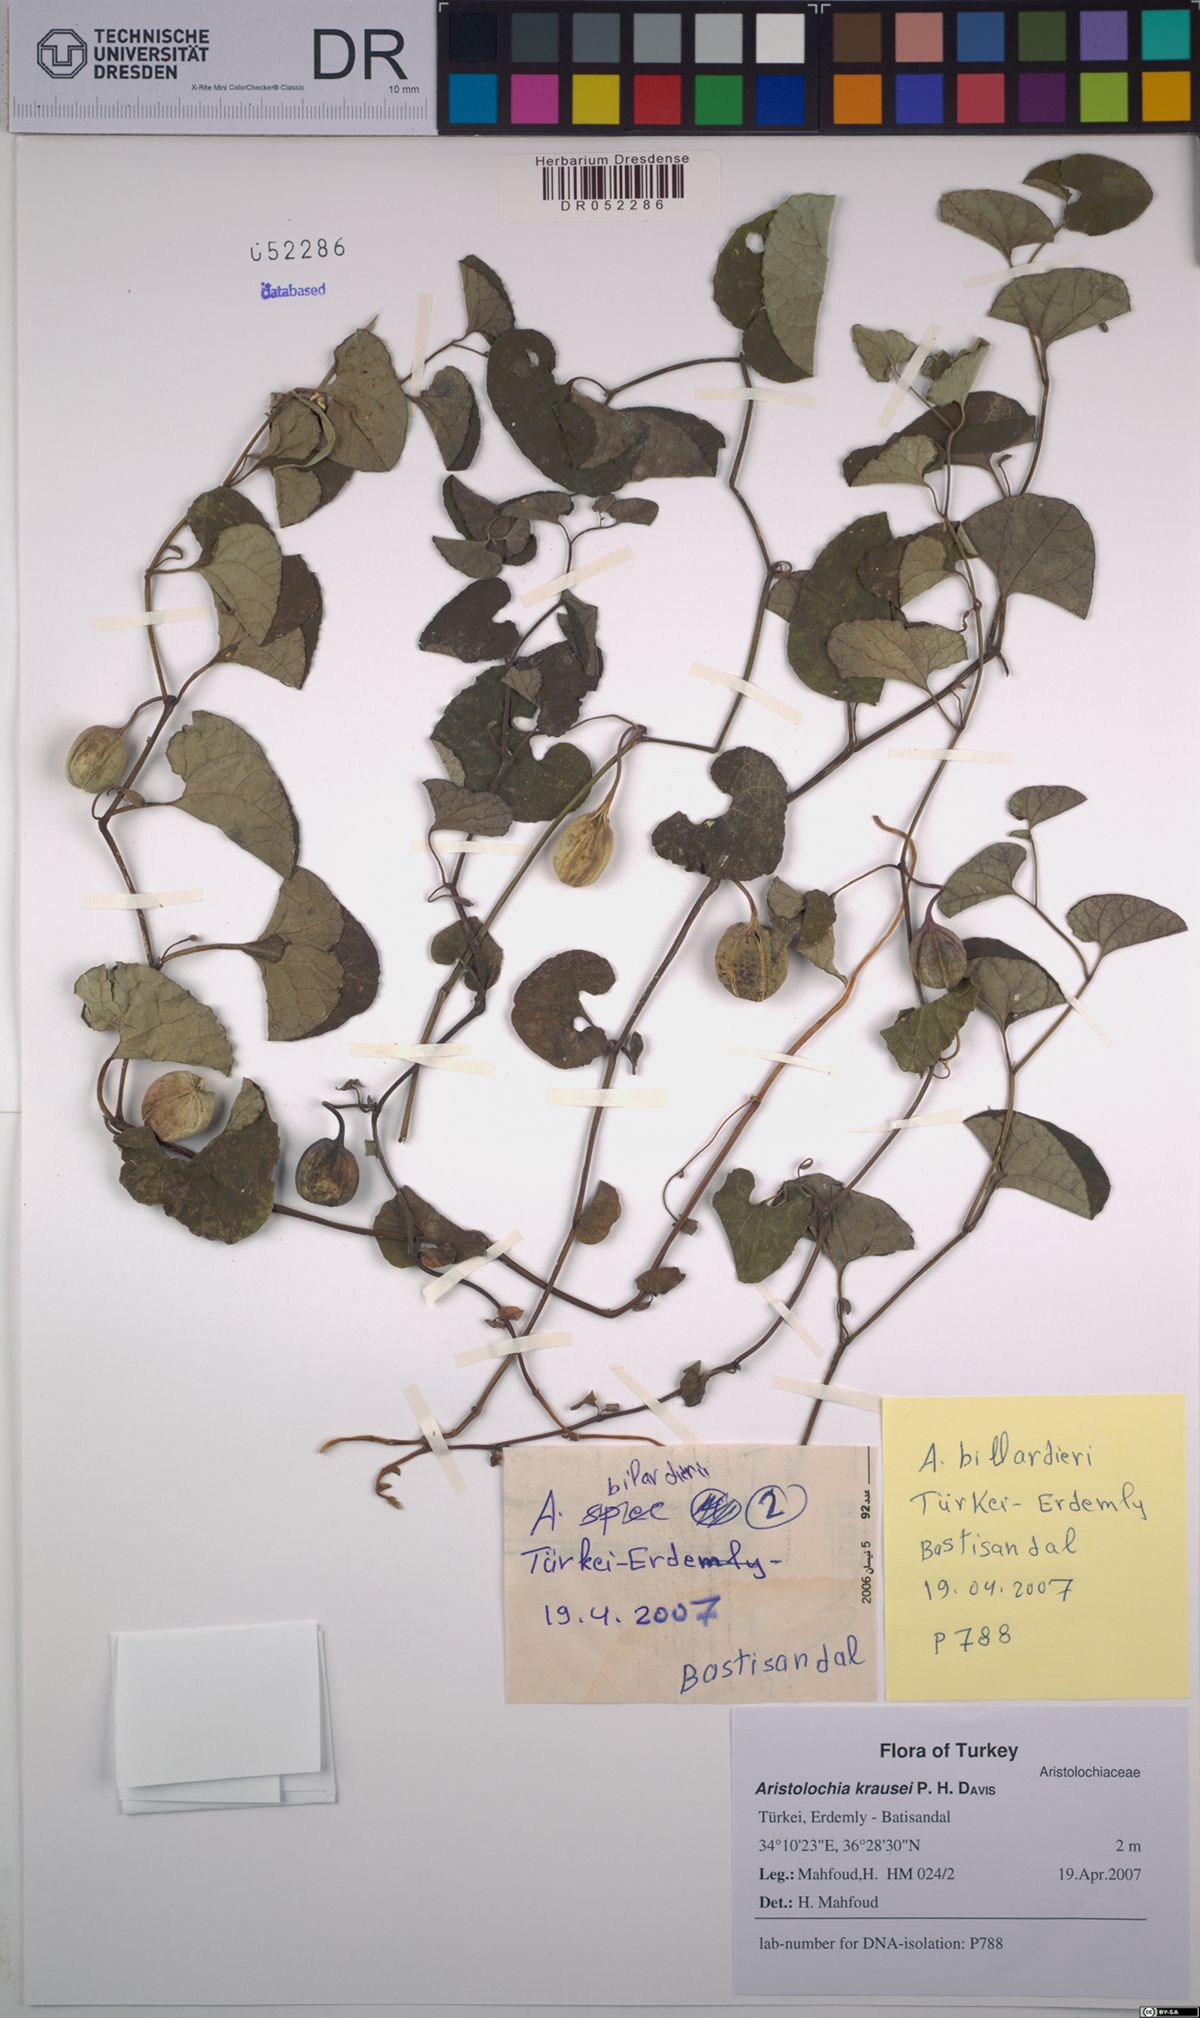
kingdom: Plantae
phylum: Tracheophyta
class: Magnoliopsida
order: Piperales
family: Aristolochiaceae
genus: Aristolochia
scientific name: Aristolochia krausei
